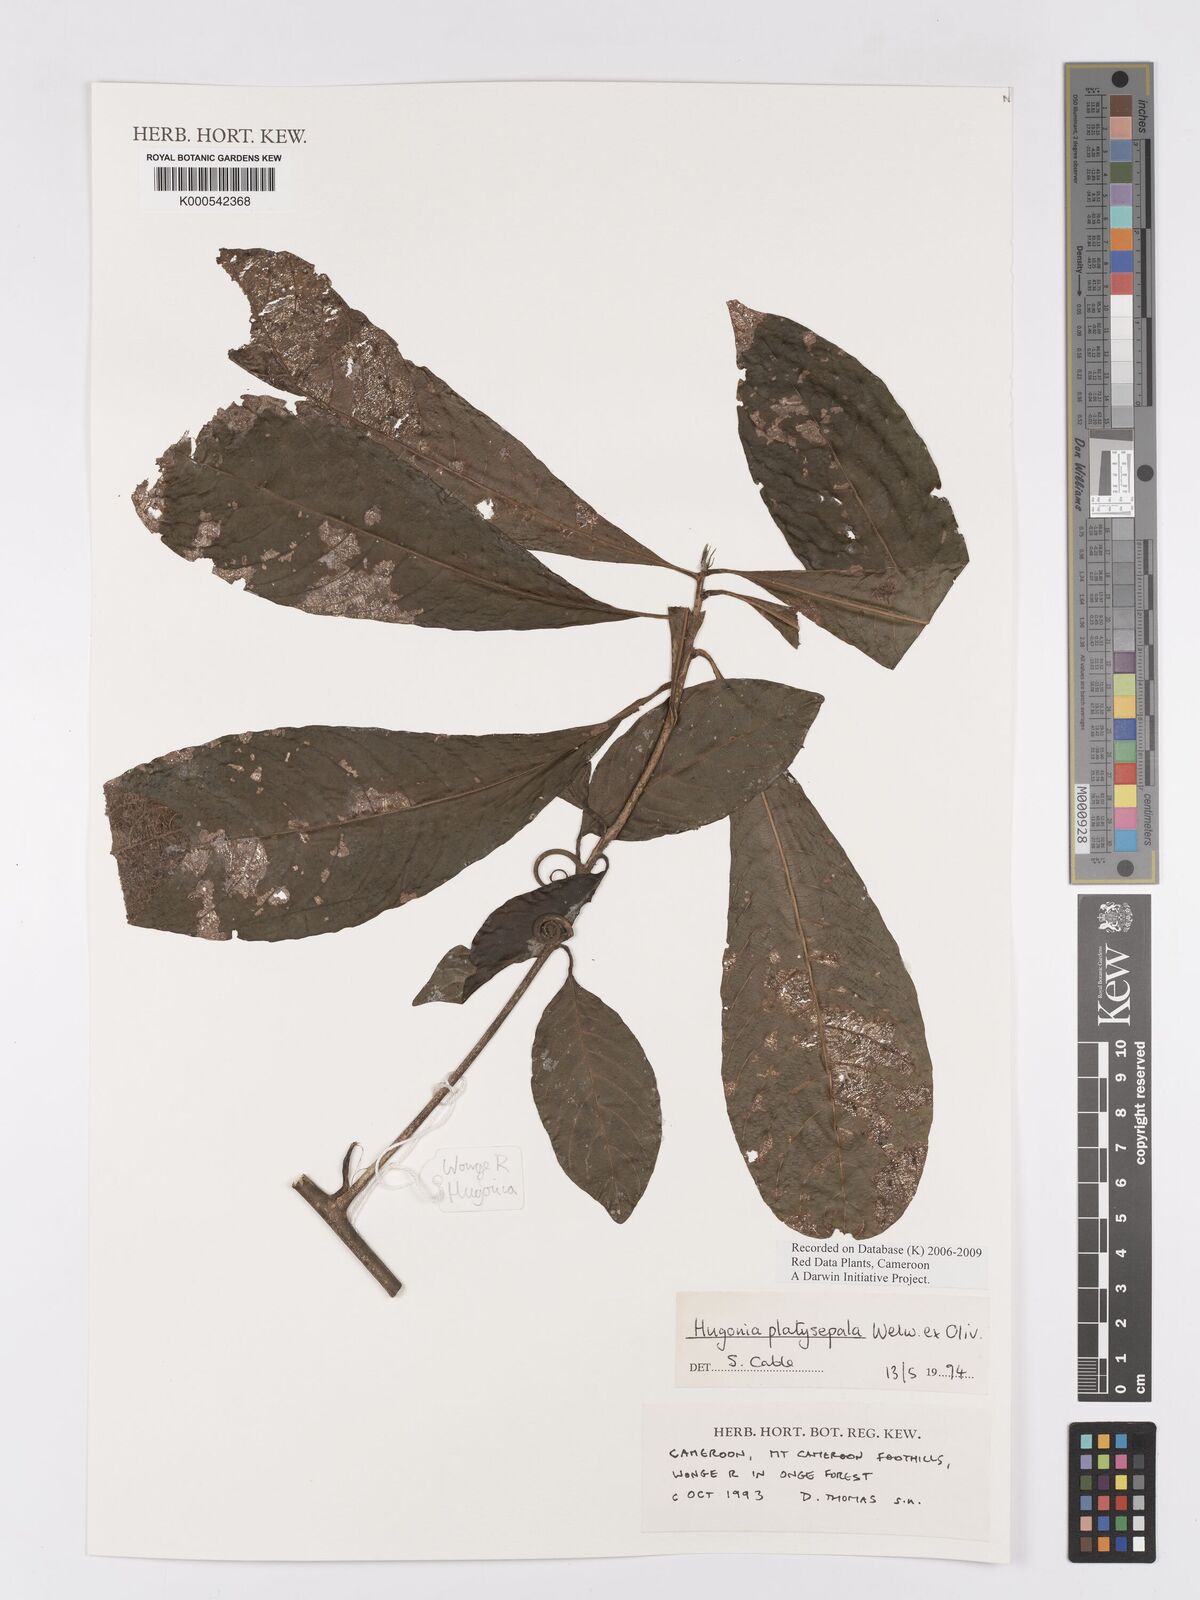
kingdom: Plantae
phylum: Tracheophyta
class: Magnoliopsida
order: Malpighiales
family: Linaceae
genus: Hugonia
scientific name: Hugonia platysepala
